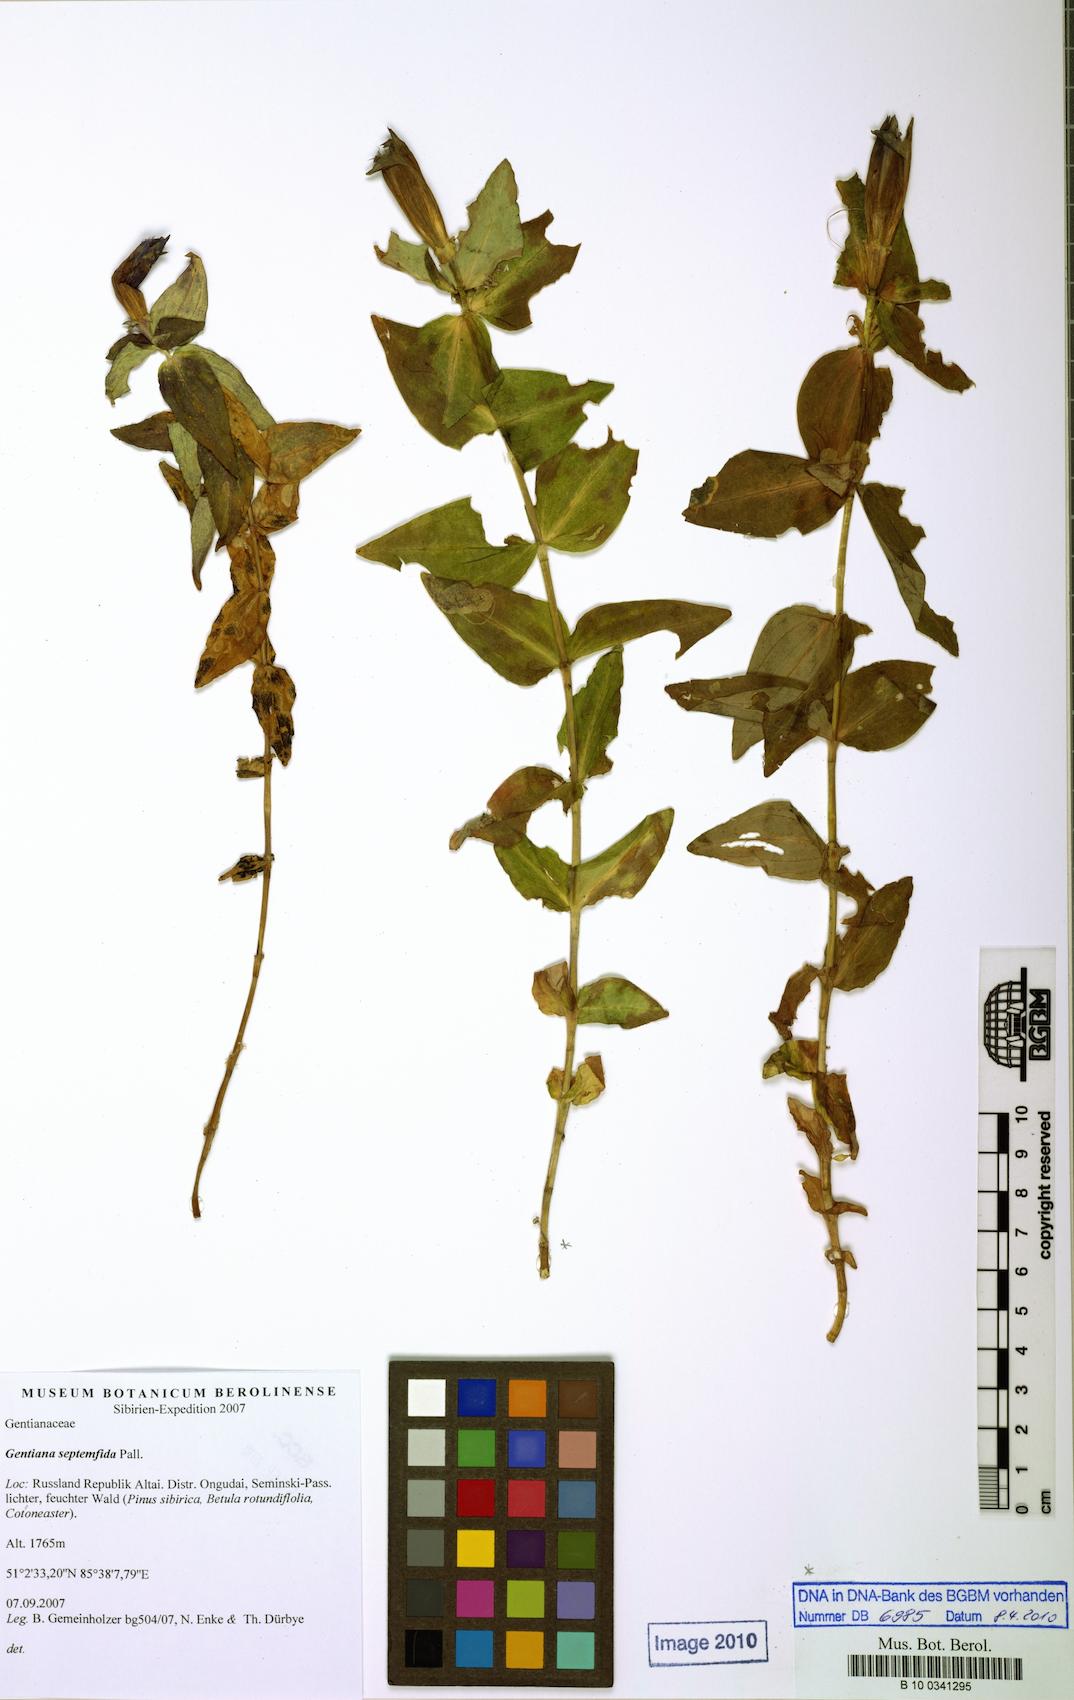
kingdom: Plantae
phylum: Tracheophyta
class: Magnoliopsida
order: Gentianales
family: Gentianaceae
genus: Gentiana
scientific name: Gentiana septemfida
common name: Crested gentian
